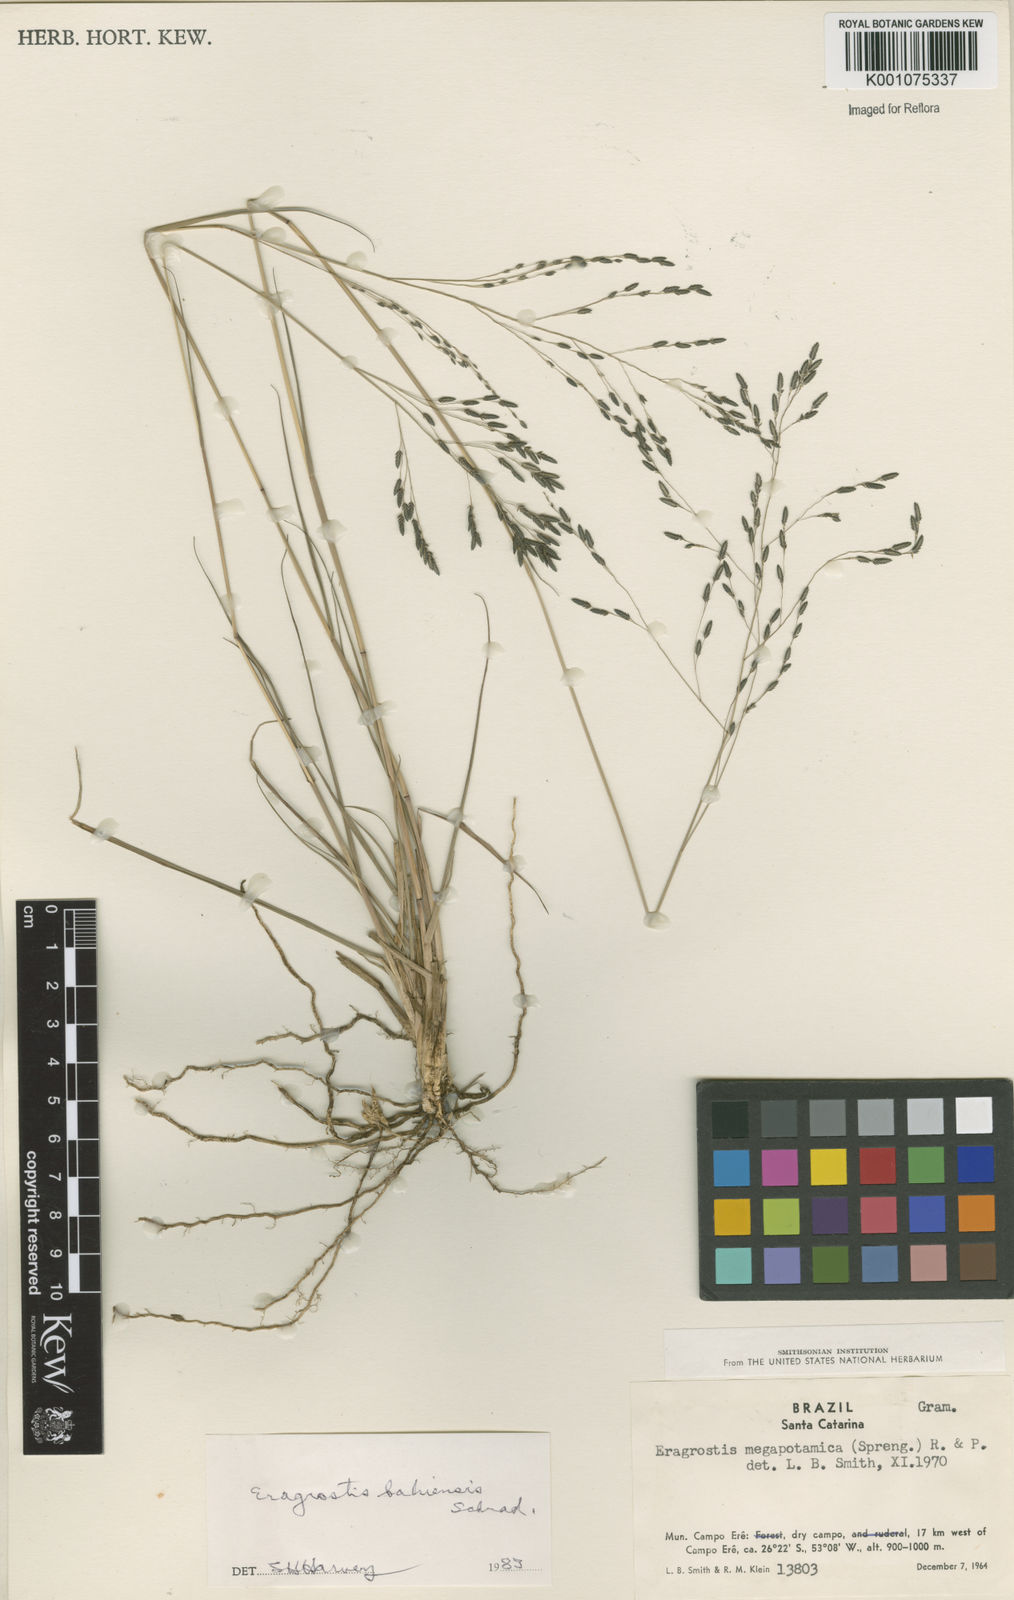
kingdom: Plantae
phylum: Tracheophyta
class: Liliopsida
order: Poales
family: Poaceae
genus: Eragrostis
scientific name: Eragrostis bahiensis
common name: Bahia lovegrass
